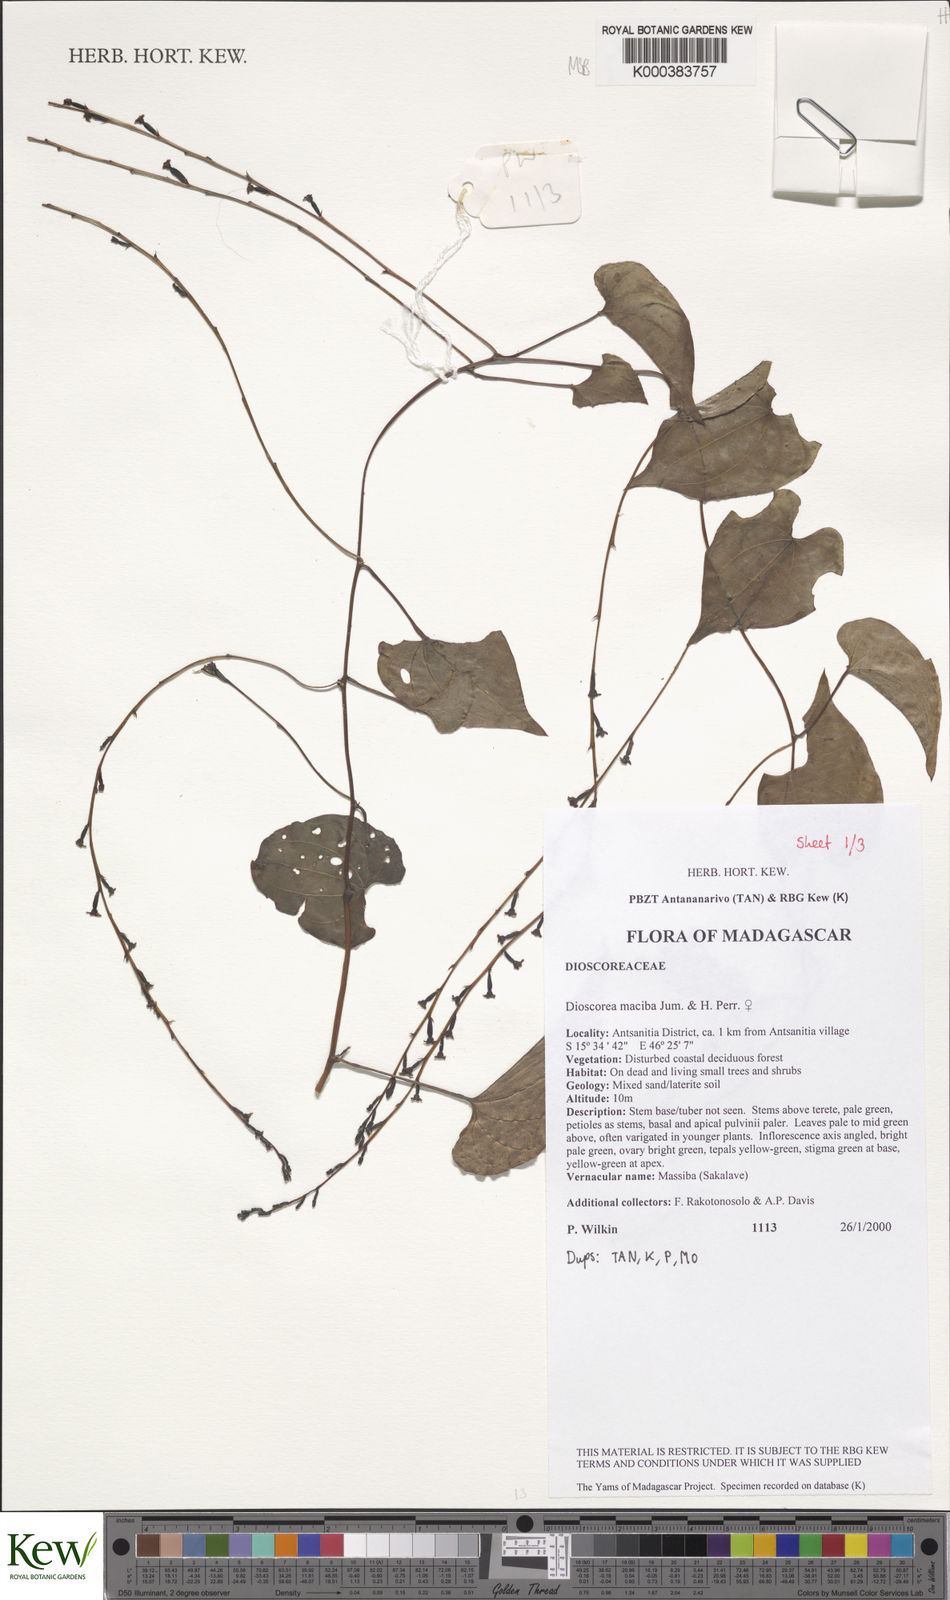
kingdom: Plantae
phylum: Tracheophyta
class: Liliopsida
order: Dioscoreales
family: Dioscoreaceae
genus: Dioscorea
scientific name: Dioscorea
